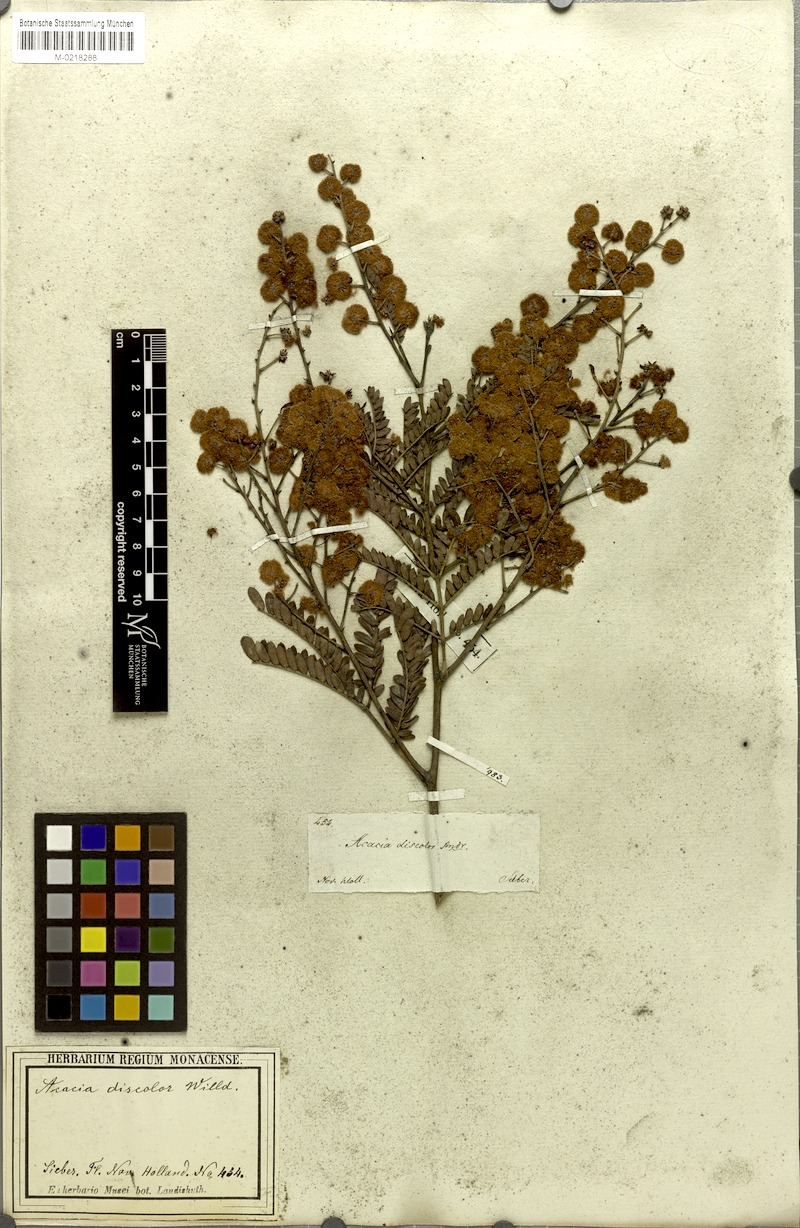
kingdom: Plantae
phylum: Tracheophyta
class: Magnoliopsida
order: Fabales
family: Fabaceae
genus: Acacia
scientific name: Acacia terminalis
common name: Cedar wattle
